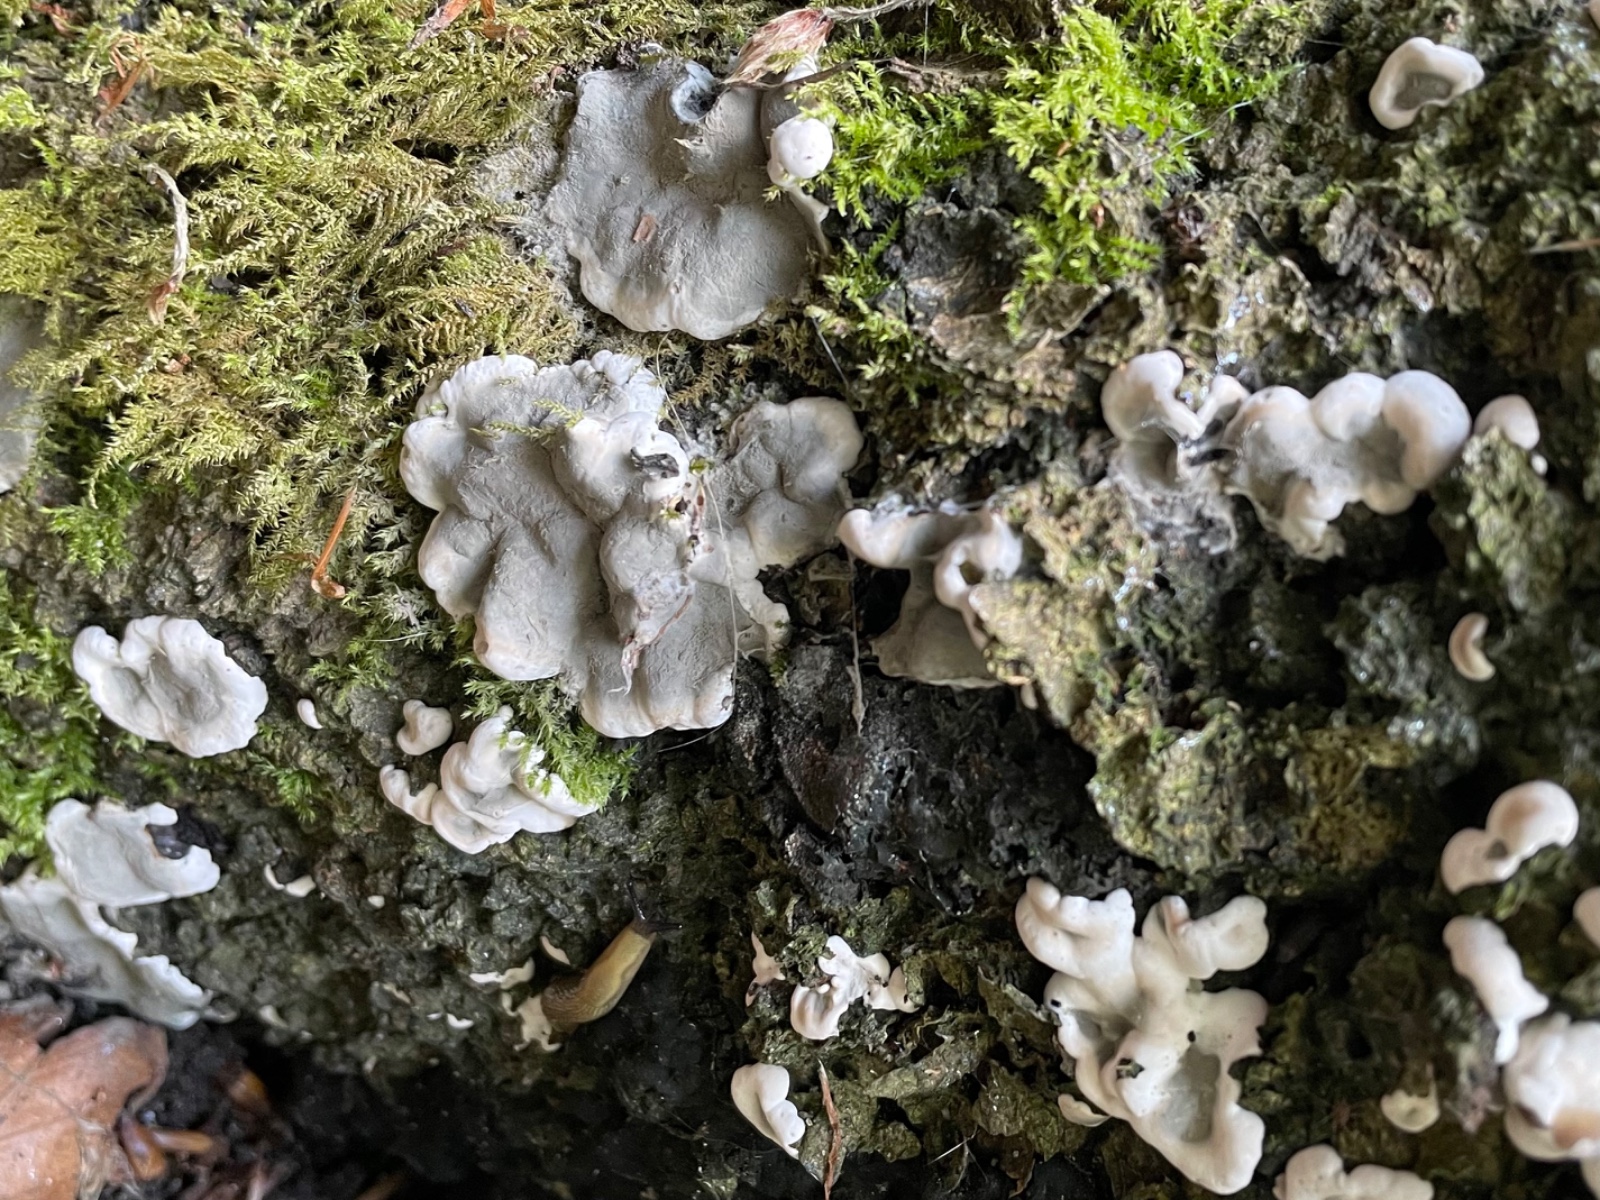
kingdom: Fungi
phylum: Ascomycota
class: Sordariomycetes
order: Xylariales
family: Xylariaceae
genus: Kretzschmaria
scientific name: Kretzschmaria deusta
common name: stor kulsvamp
